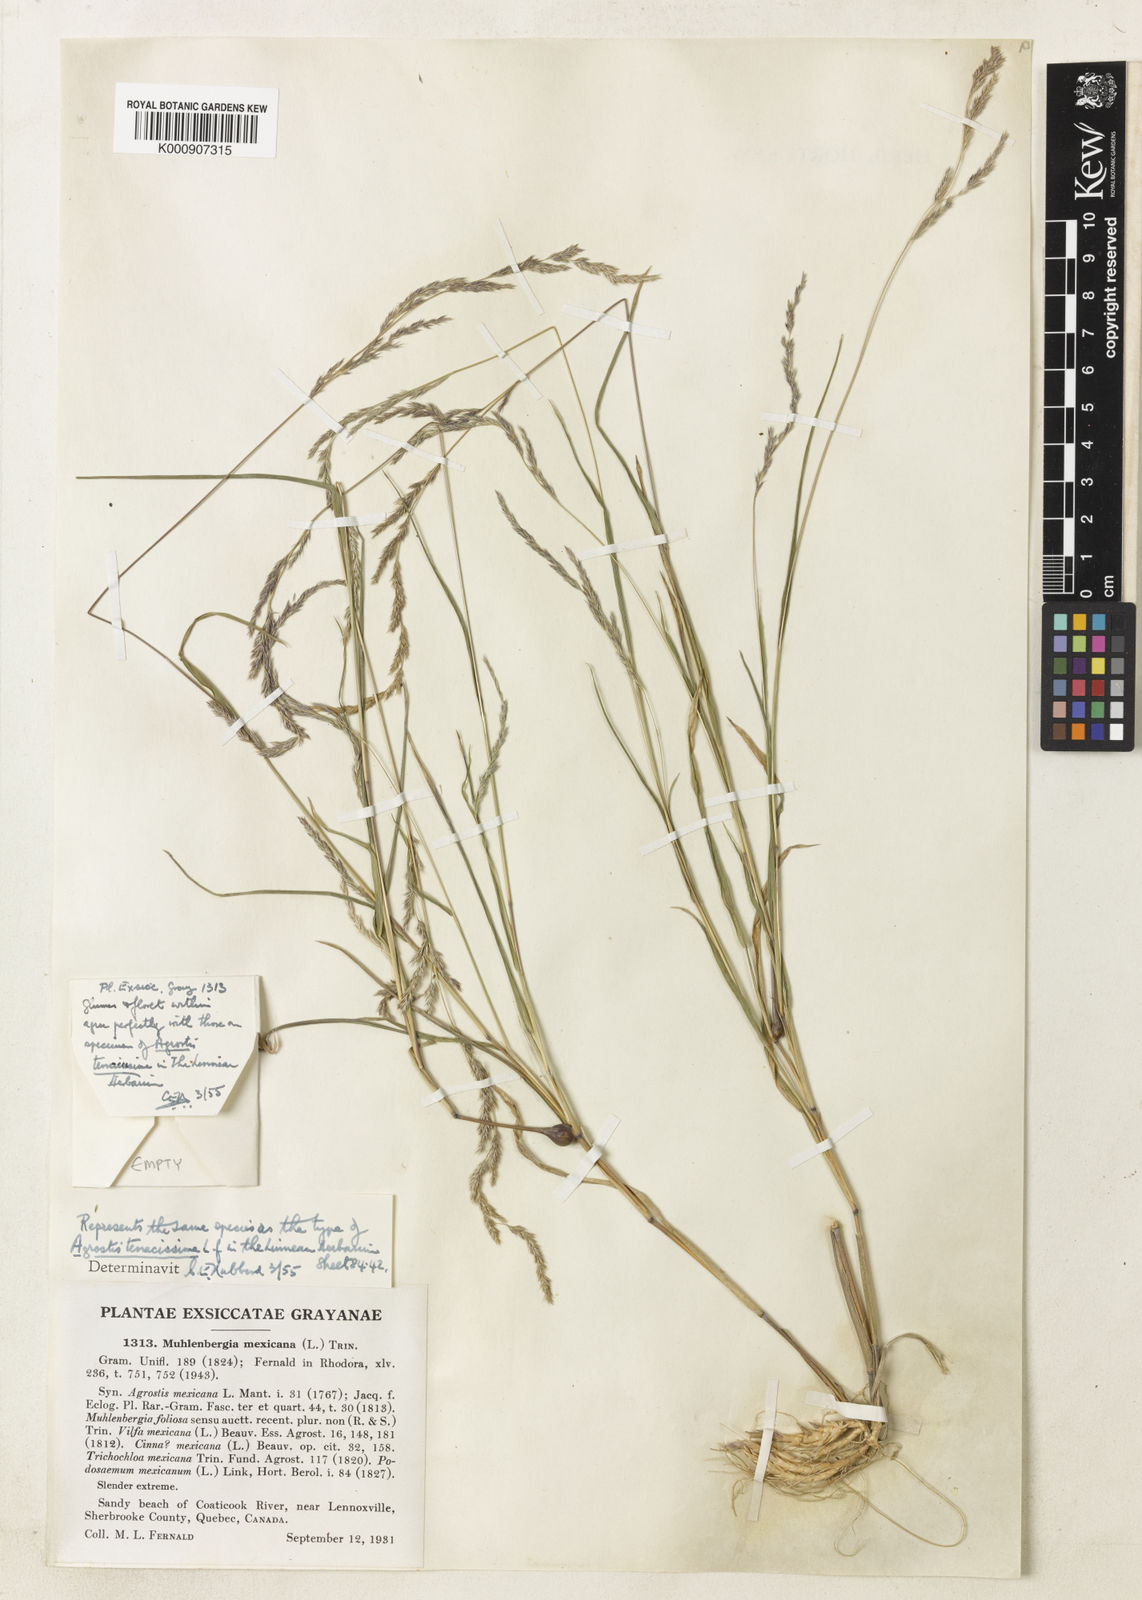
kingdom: Plantae
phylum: Tracheophyta
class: Liliopsida
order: Poales
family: Poaceae
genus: Muhlenbergia
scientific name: Muhlenbergia mexicana
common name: Mexican muhly
